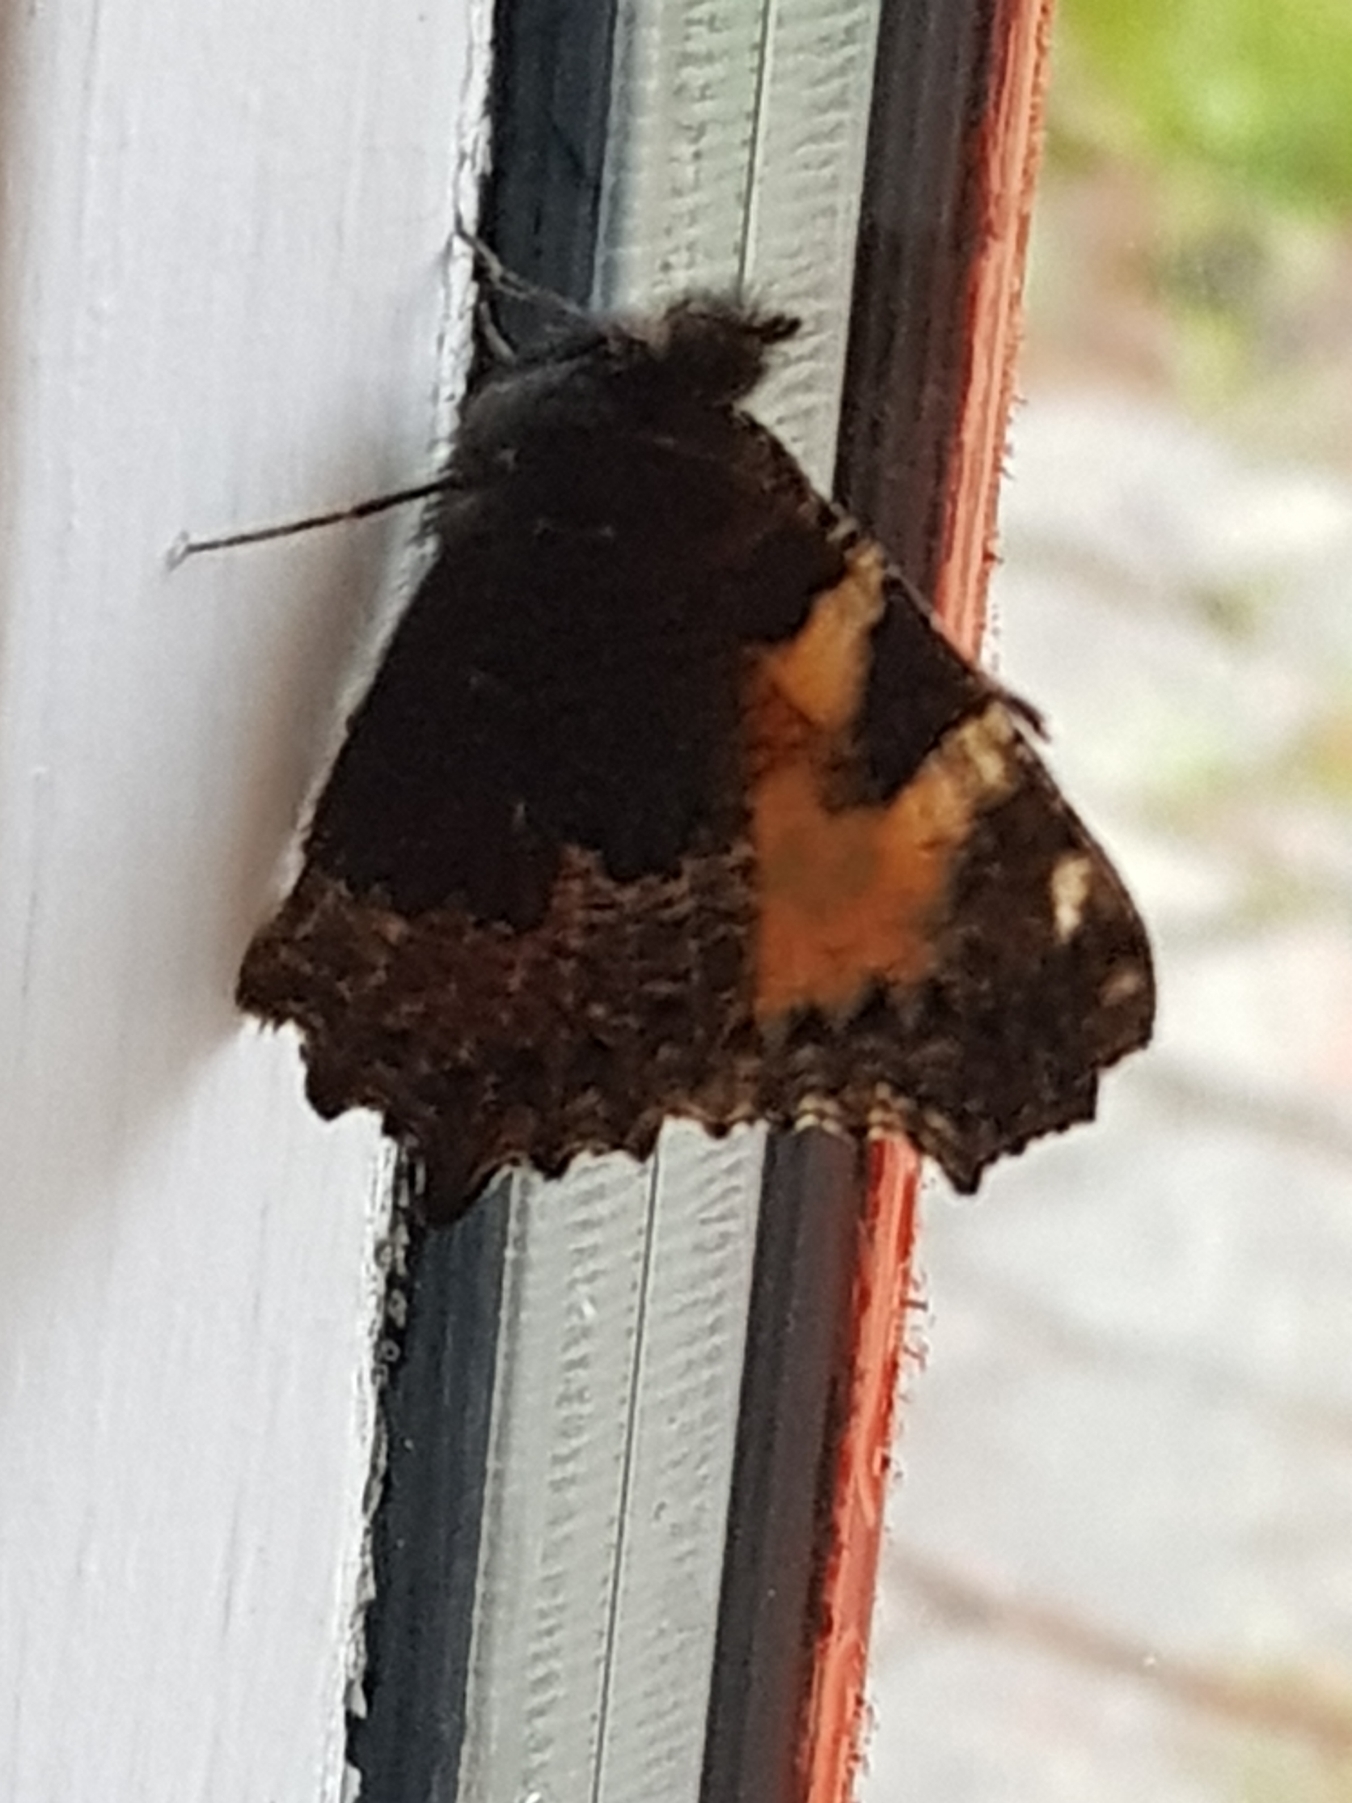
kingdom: Animalia
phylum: Arthropoda
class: Insecta
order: Lepidoptera
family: Nymphalidae
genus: Aglais
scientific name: Aglais urticae
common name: Nældens takvinge
